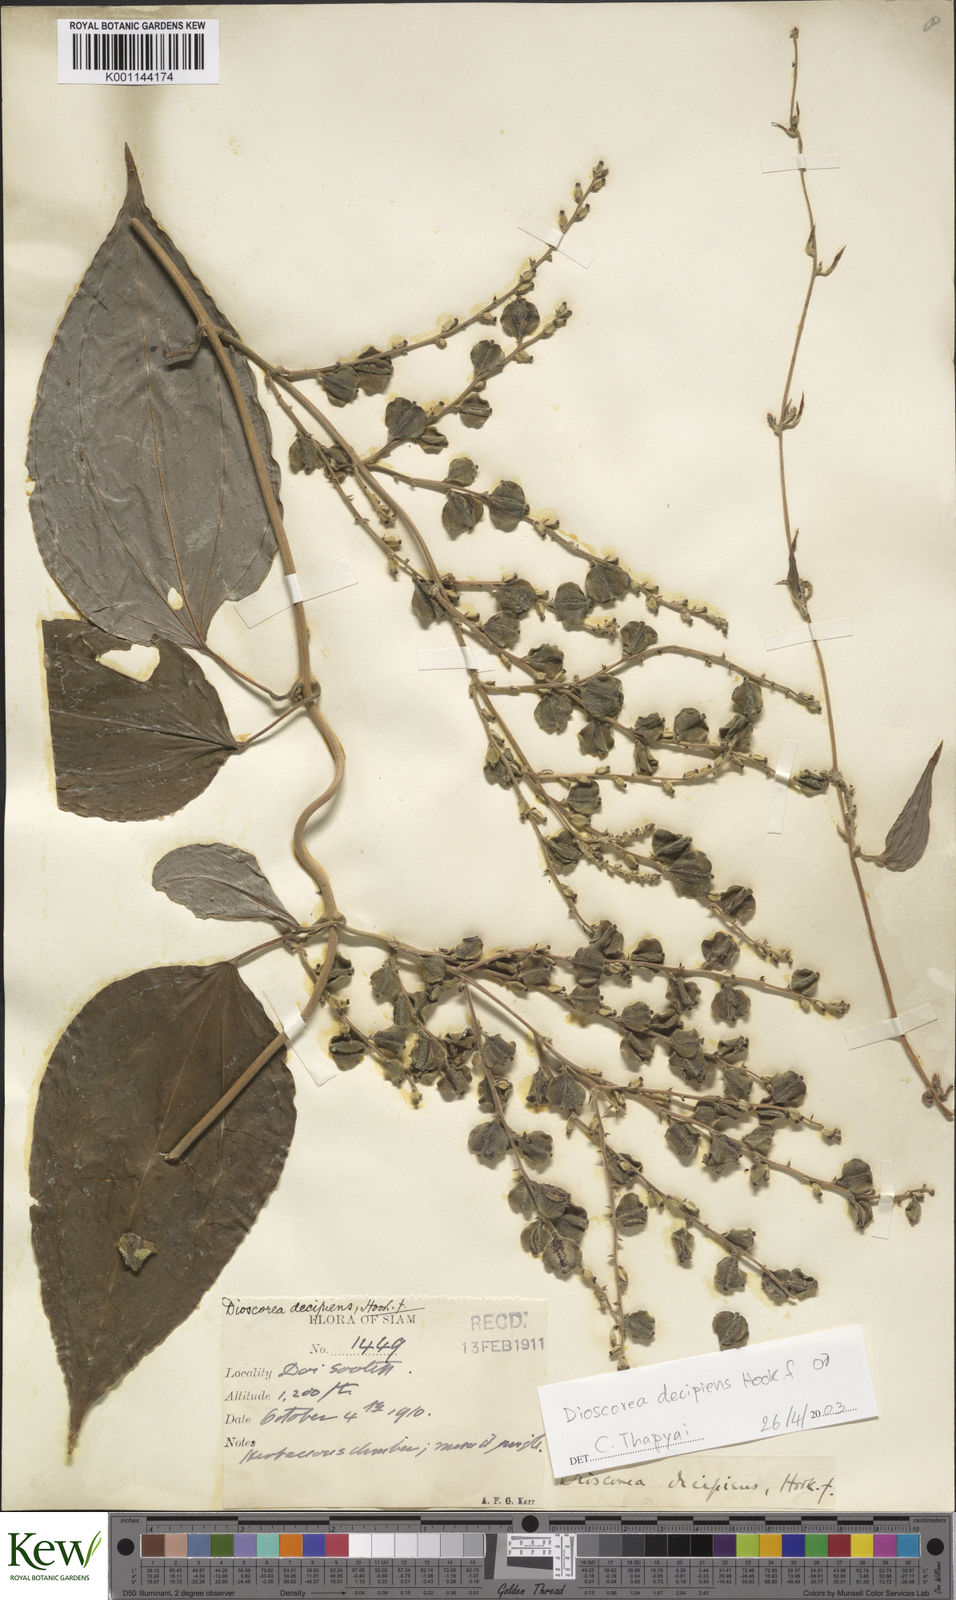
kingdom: Plantae
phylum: Tracheophyta
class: Liliopsida
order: Dioscoreales
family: Dioscoreaceae
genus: Dioscorea
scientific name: Dioscorea decipiens
